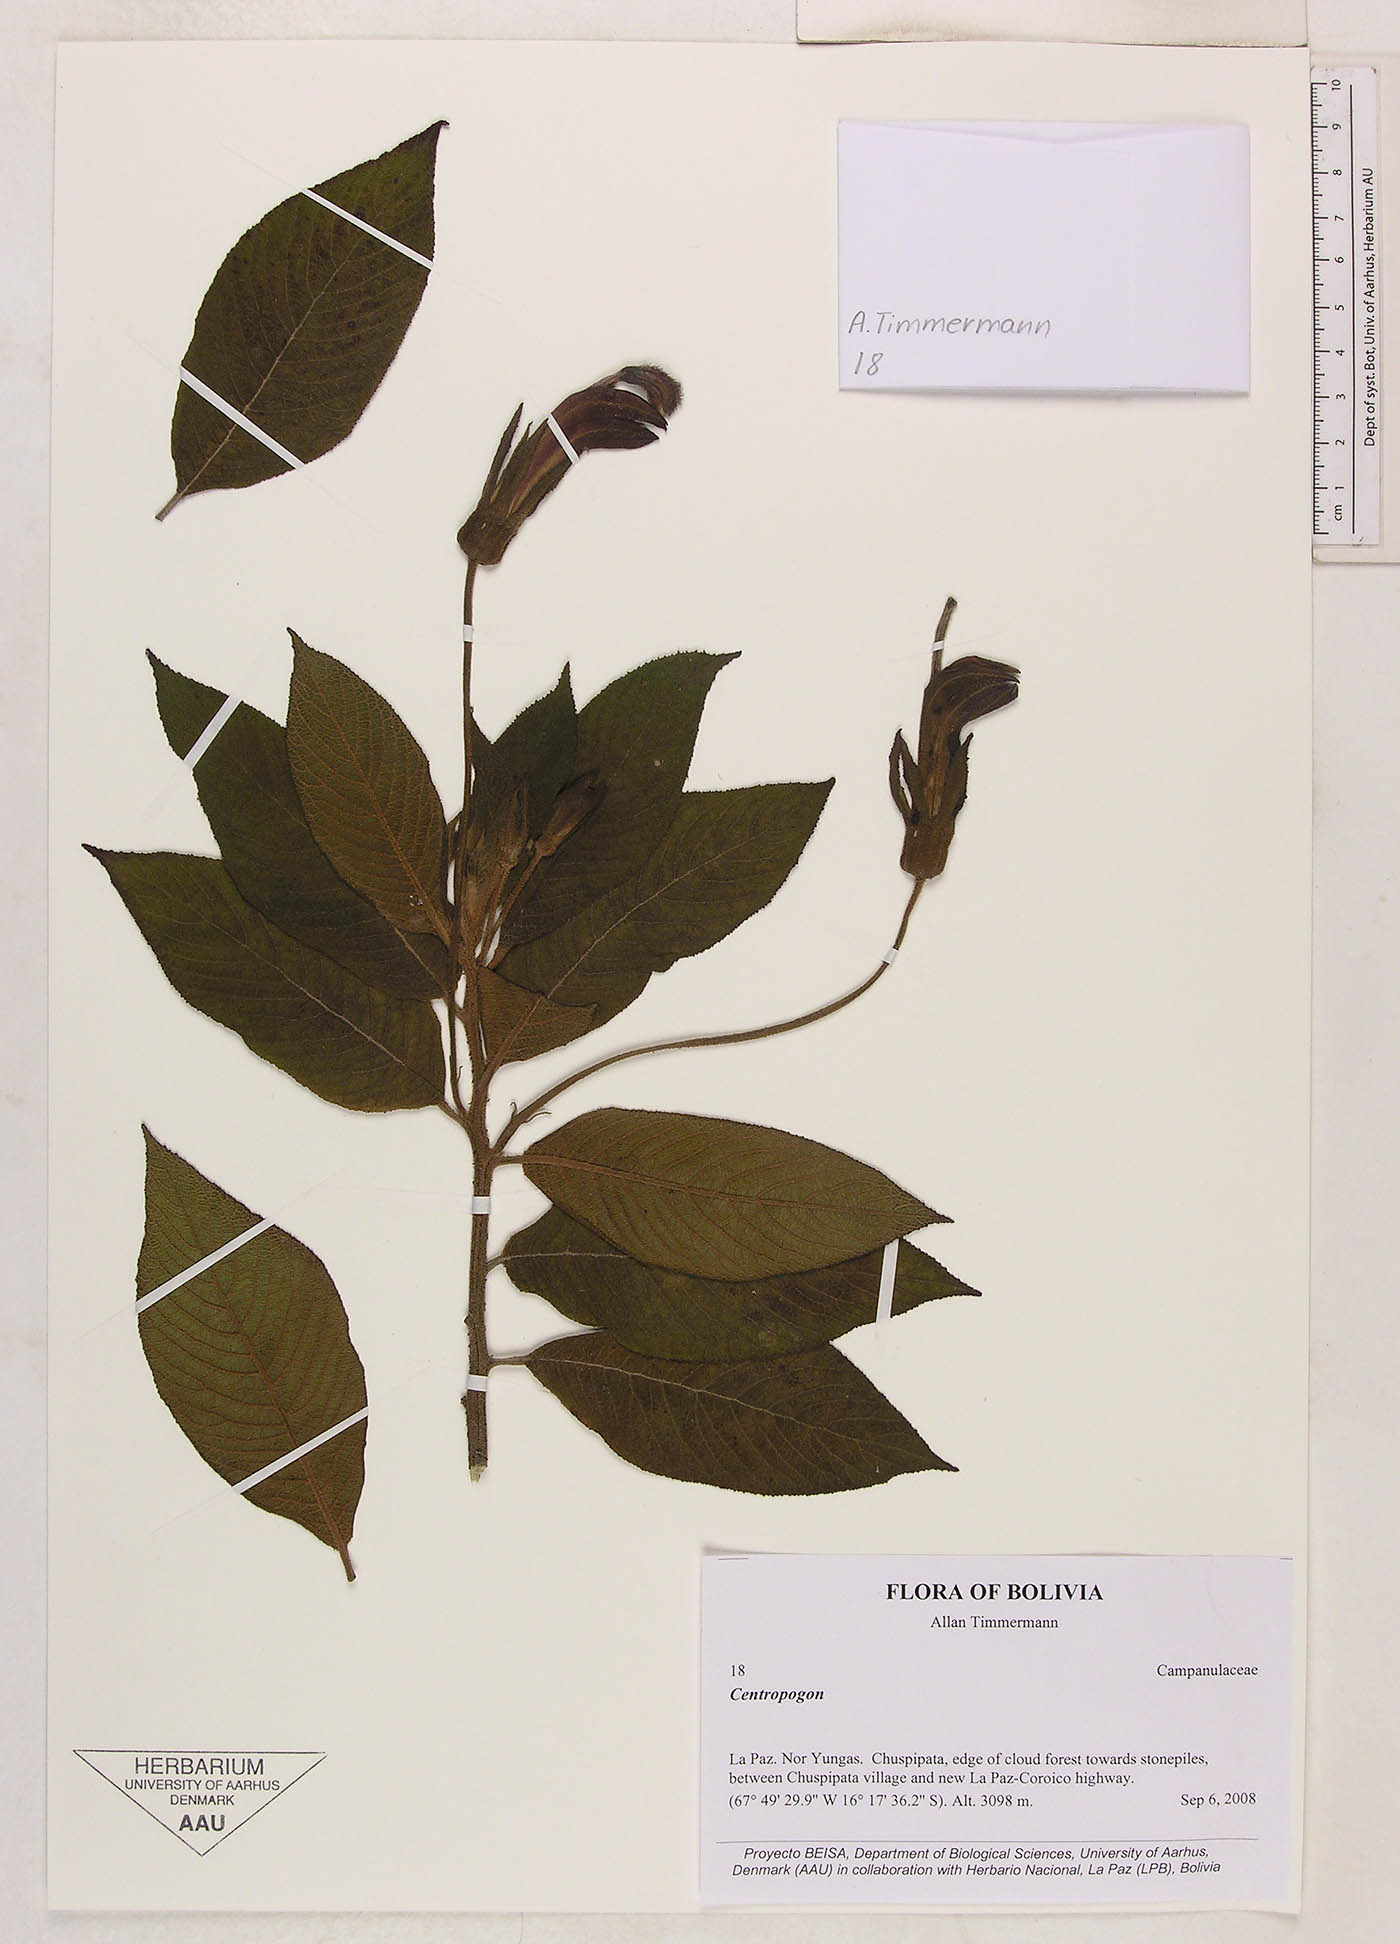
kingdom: Plantae
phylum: Tracheophyta
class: Magnoliopsida
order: Asterales
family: Campanulaceae
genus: Centropogon
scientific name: Centropogon
